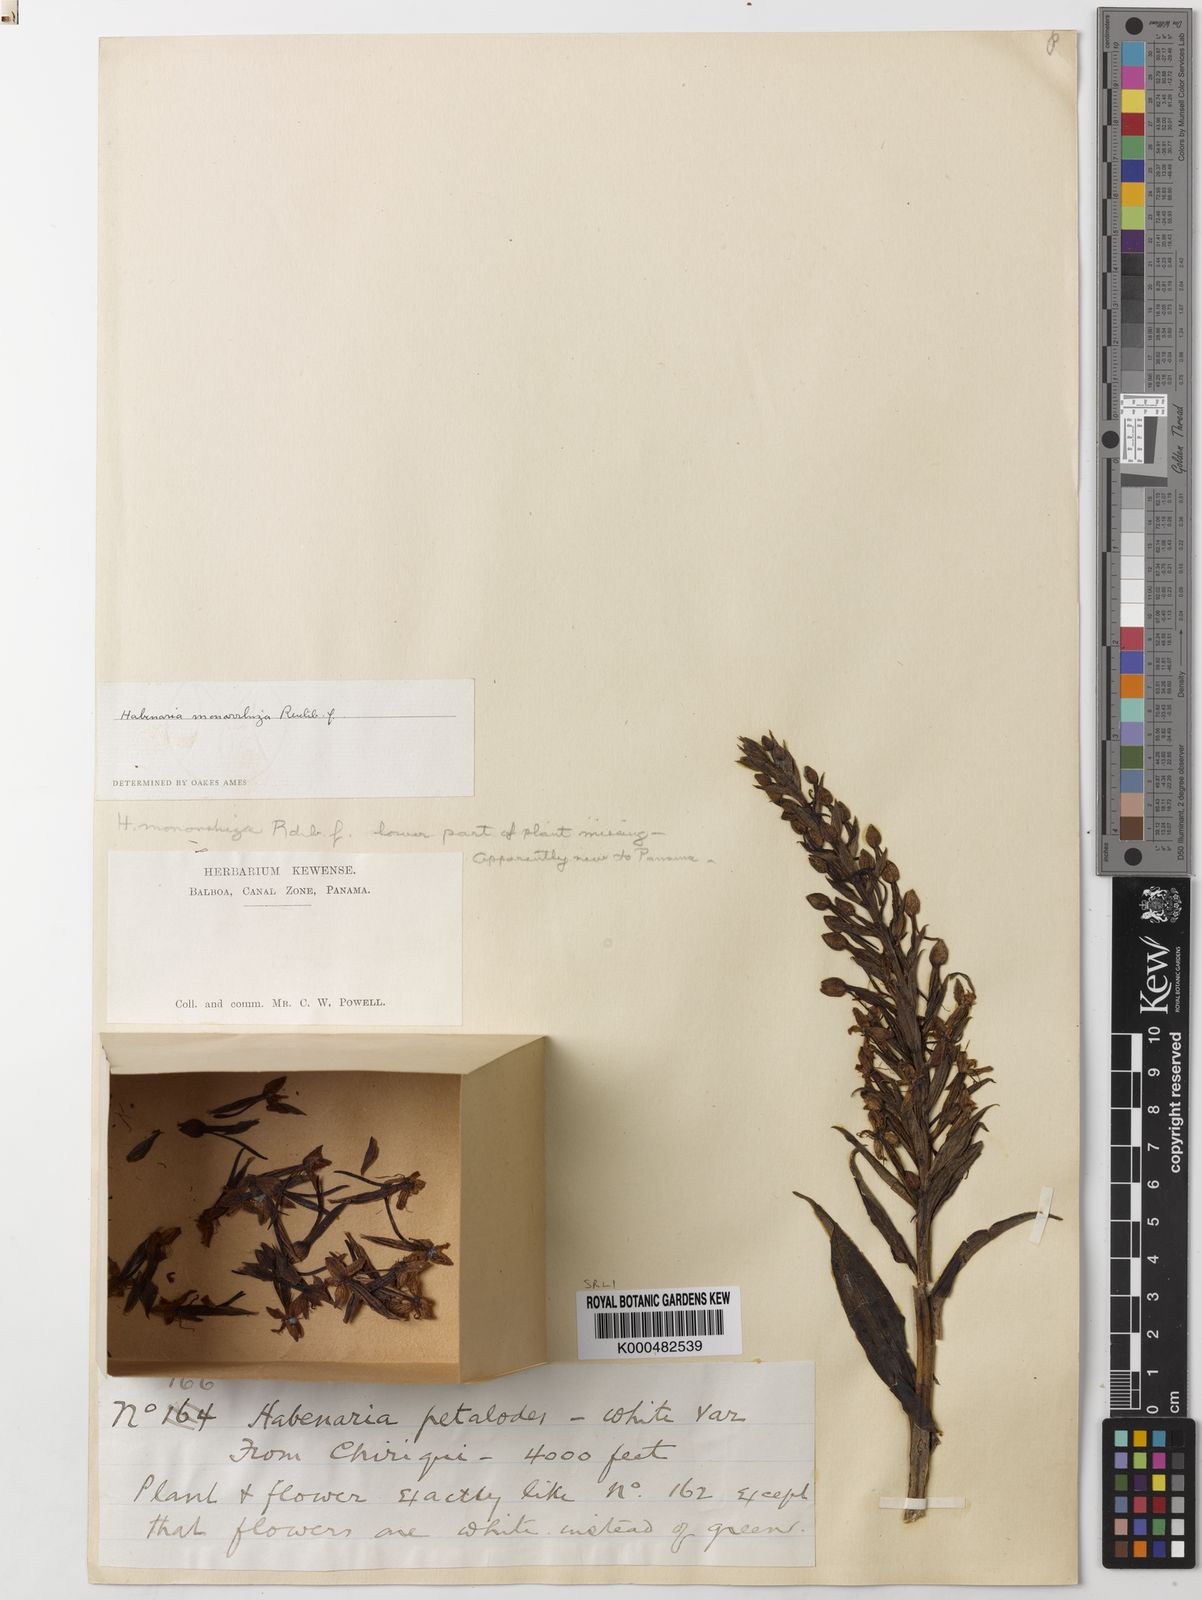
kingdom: Plantae
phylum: Tracheophyta
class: Liliopsida
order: Asparagales
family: Orchidaceae
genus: Habenaria
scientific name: Habenaria monorrhiza
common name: Tropical bog orchid
